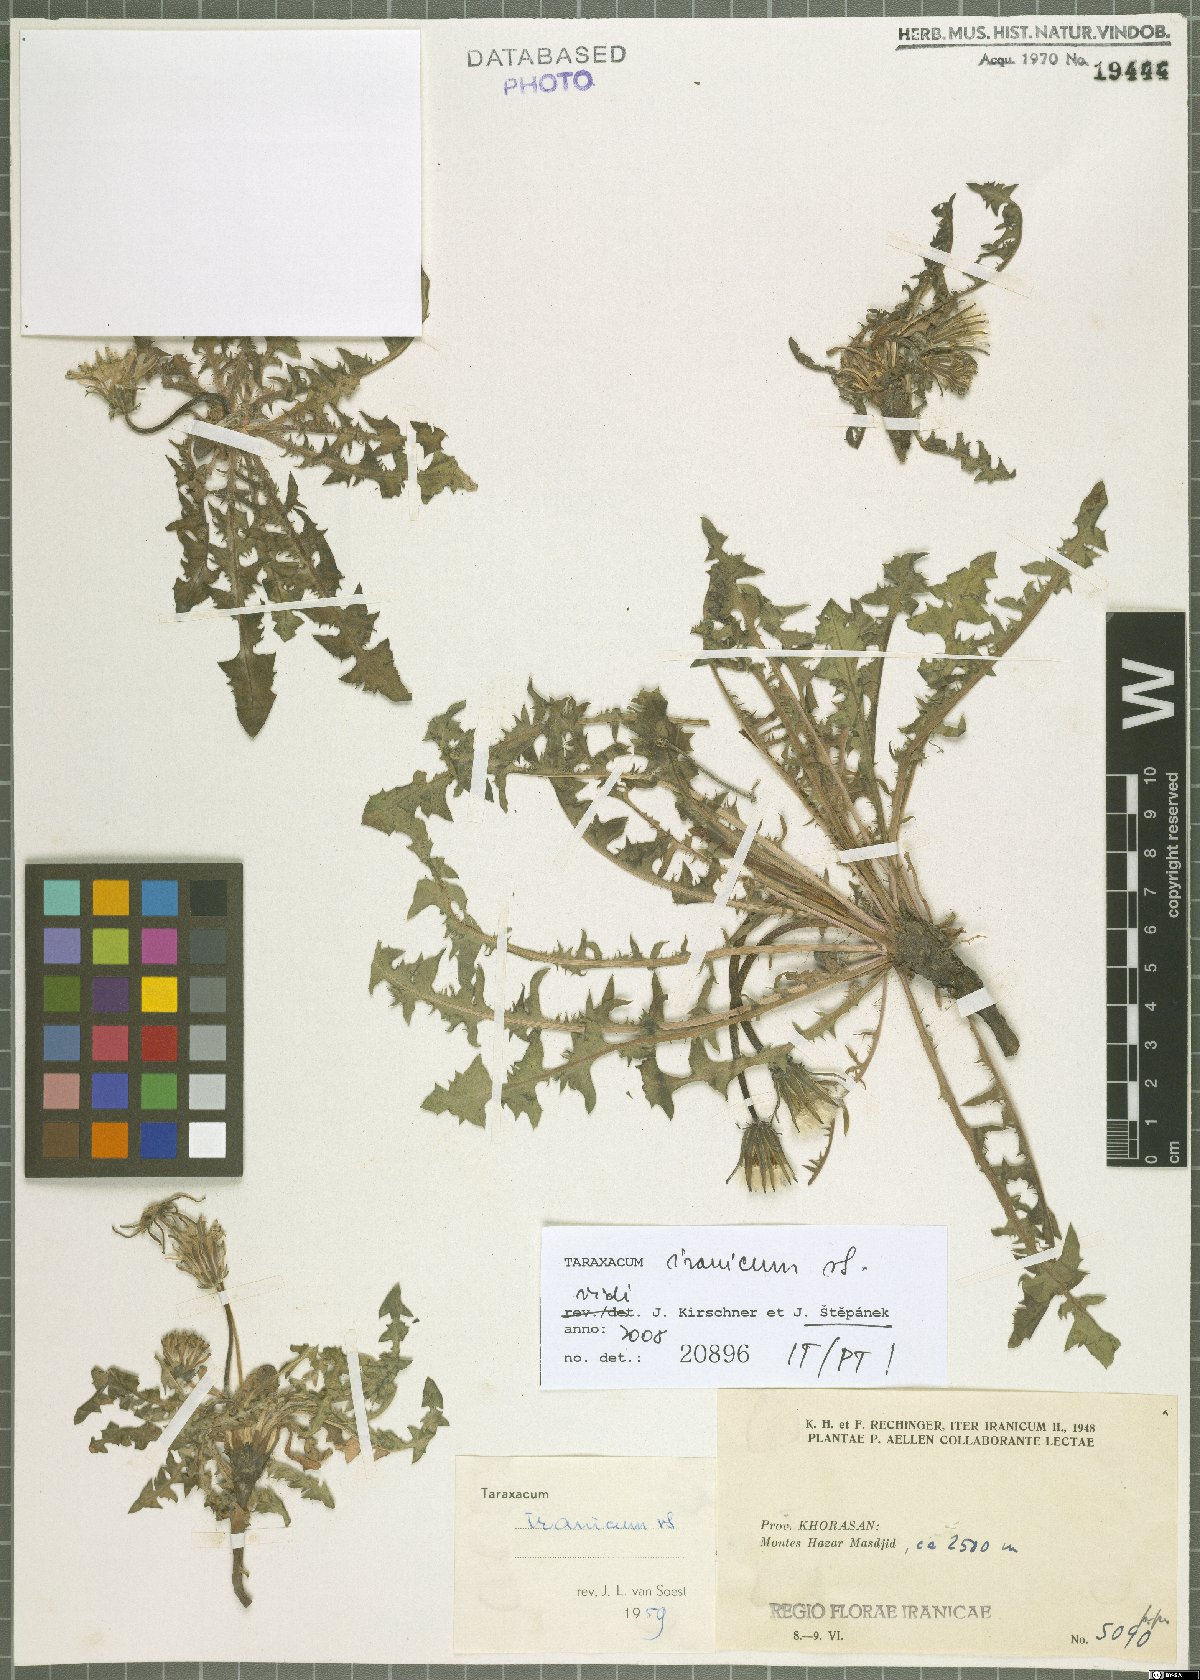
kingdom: Plantae
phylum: Tracheophyta
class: Magnoliopsida
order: Asterales
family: Asteraceae
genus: Taraxacum
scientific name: Taraxacum iranicum
